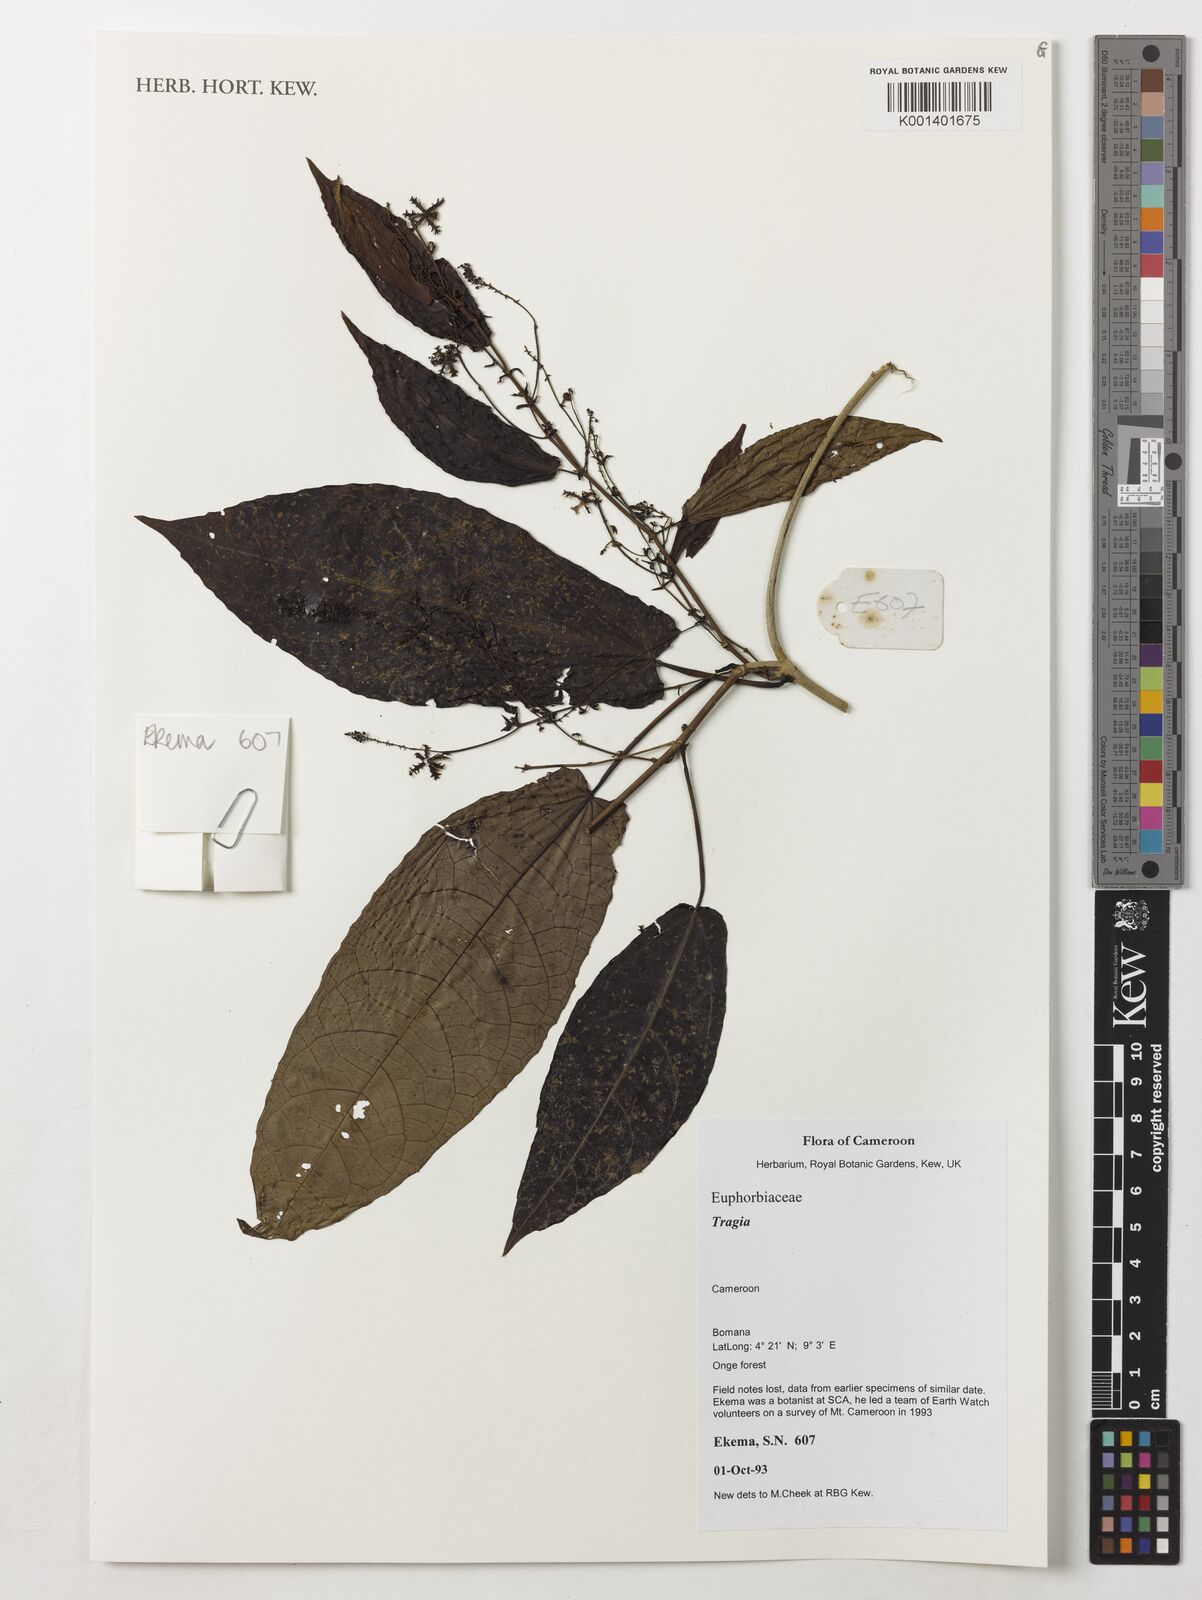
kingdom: Plantae
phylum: Tracheophyta
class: Magnoliopsida
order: Malpighiales
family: Euphorbiaceae
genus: Tragia
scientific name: Tragia
